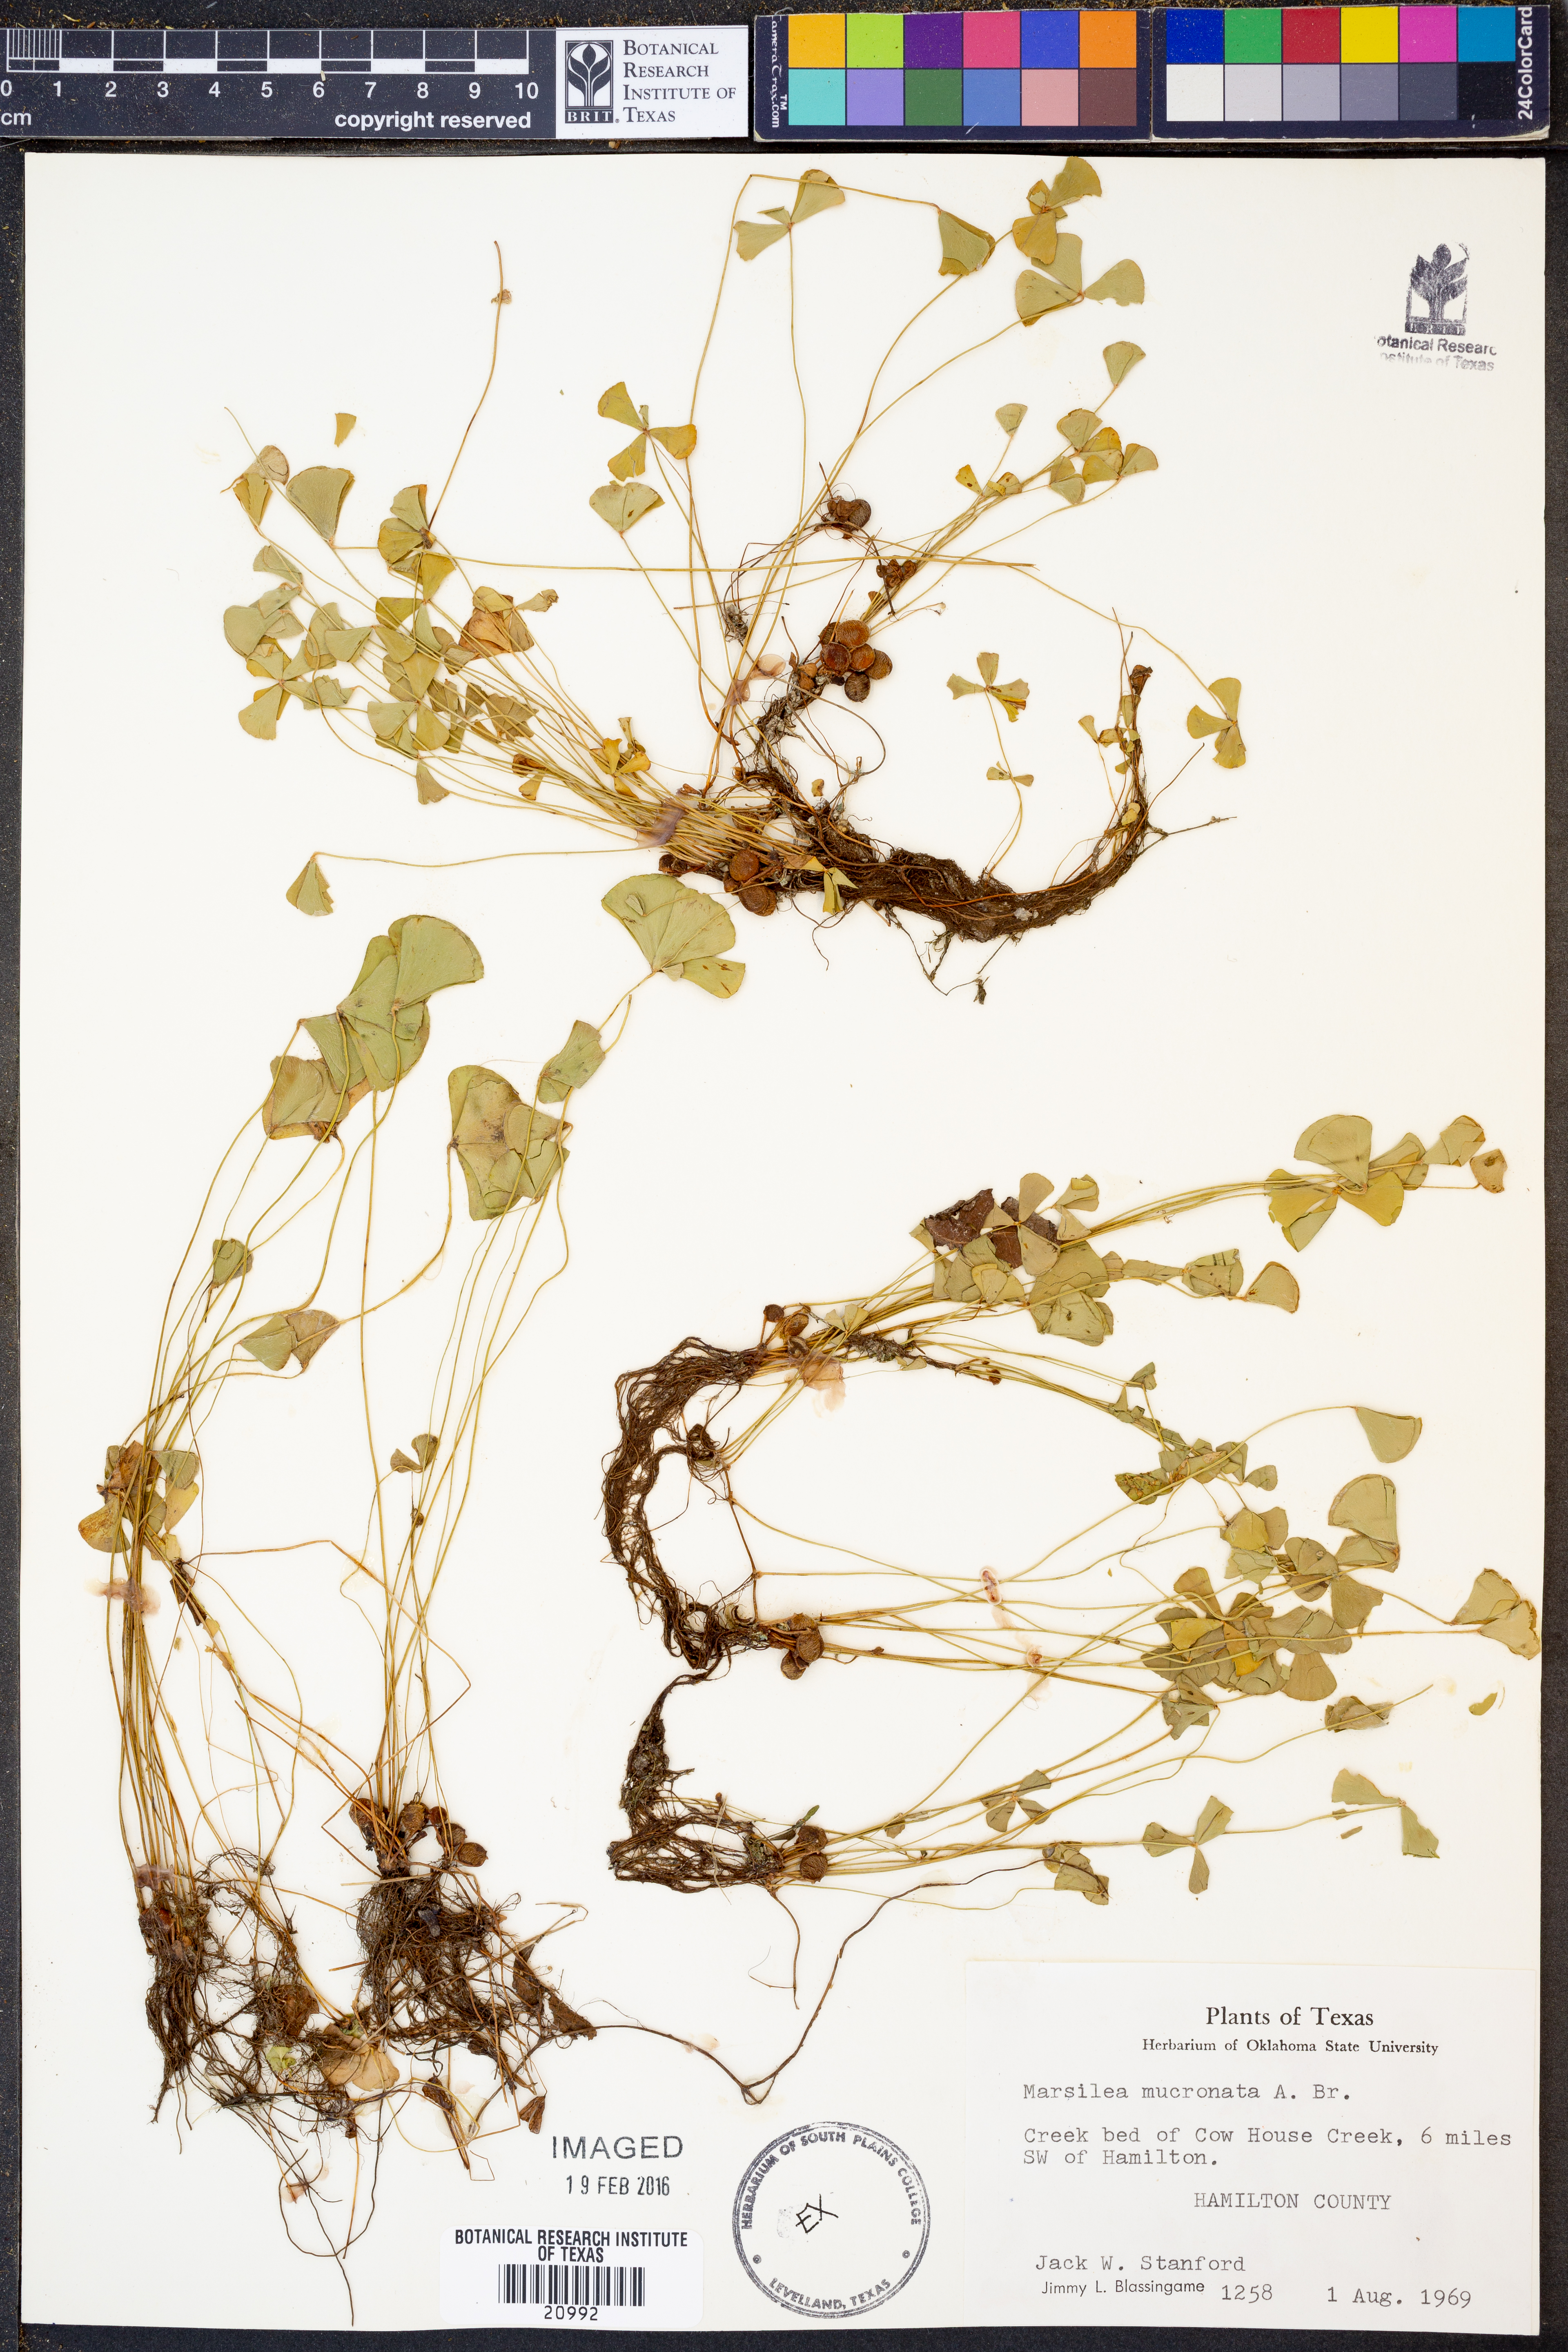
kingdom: Plantae
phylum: Tracheophyta
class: Polypodiopsida
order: Salviniales
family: Marsileaceae
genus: Marsilea
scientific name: Marsilea vestita
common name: Hooked-pepperwort
